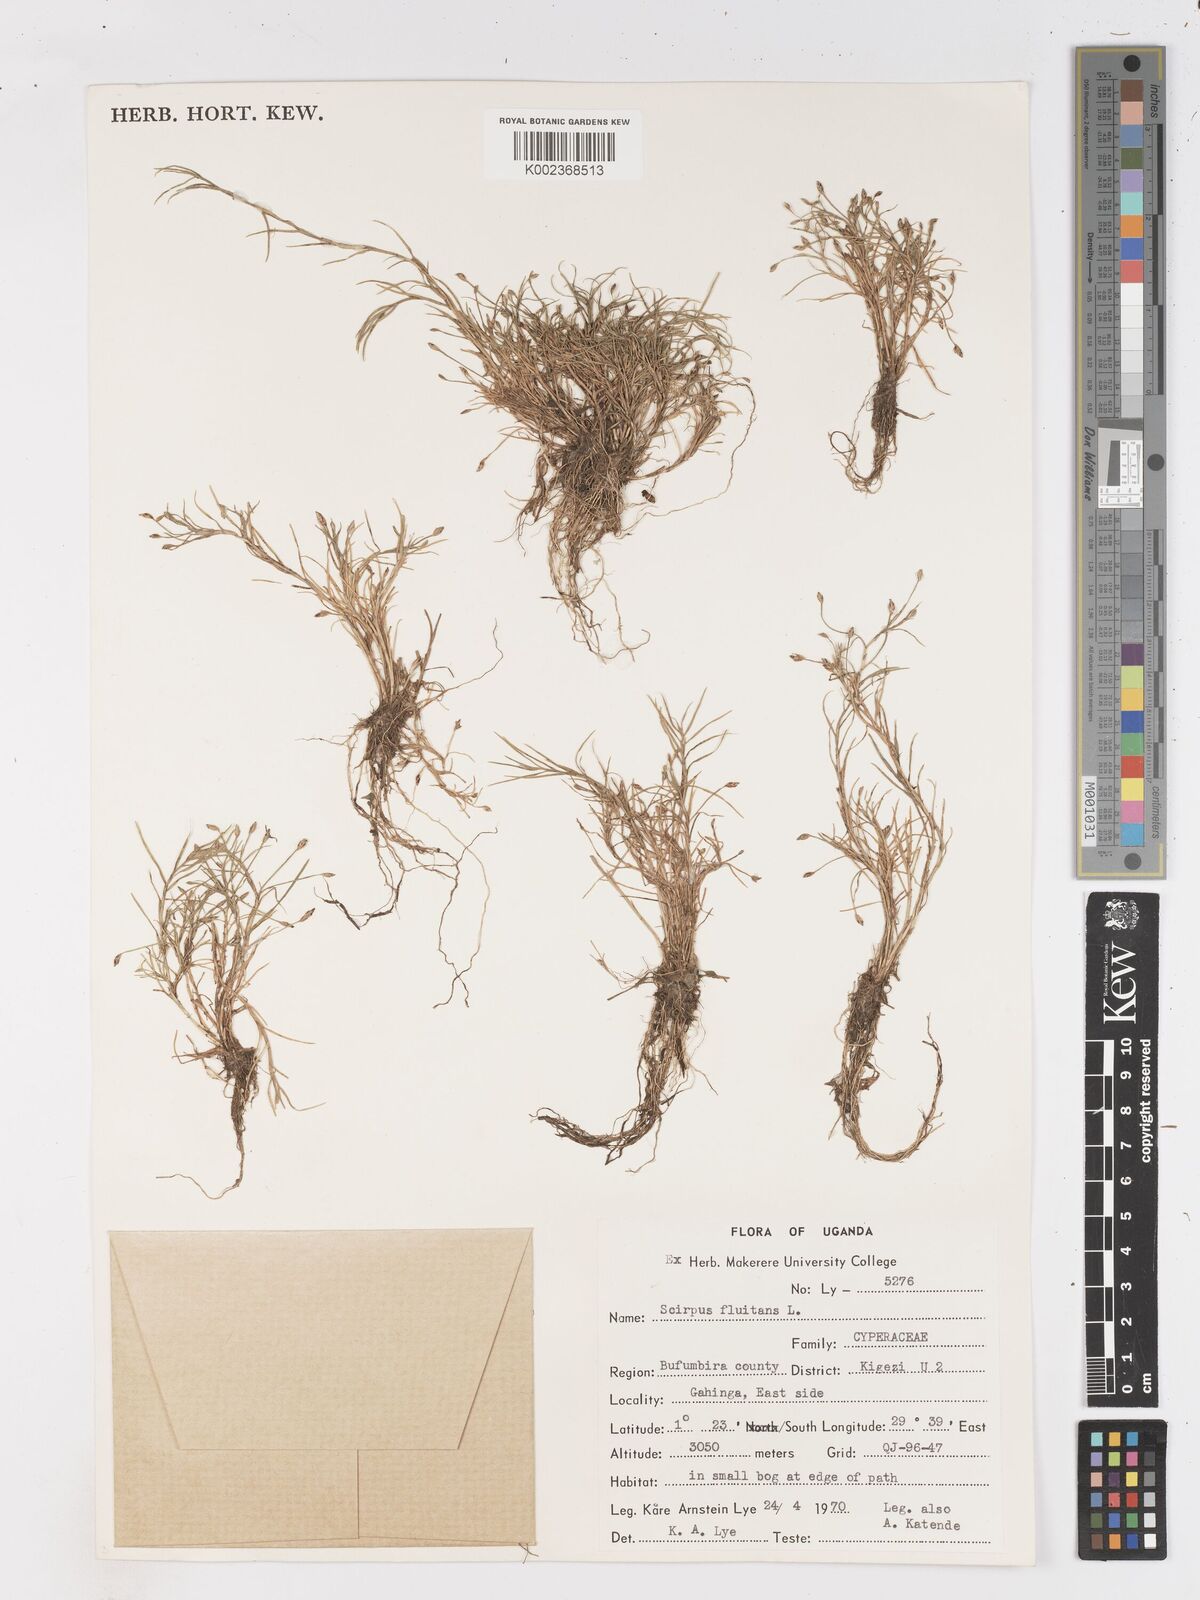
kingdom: Plantae
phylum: Tracheophyta
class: Liliopsida
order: Poales
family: Cyperaceae
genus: Isolepis
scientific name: Isolepis fluitans
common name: Floating club-rush
